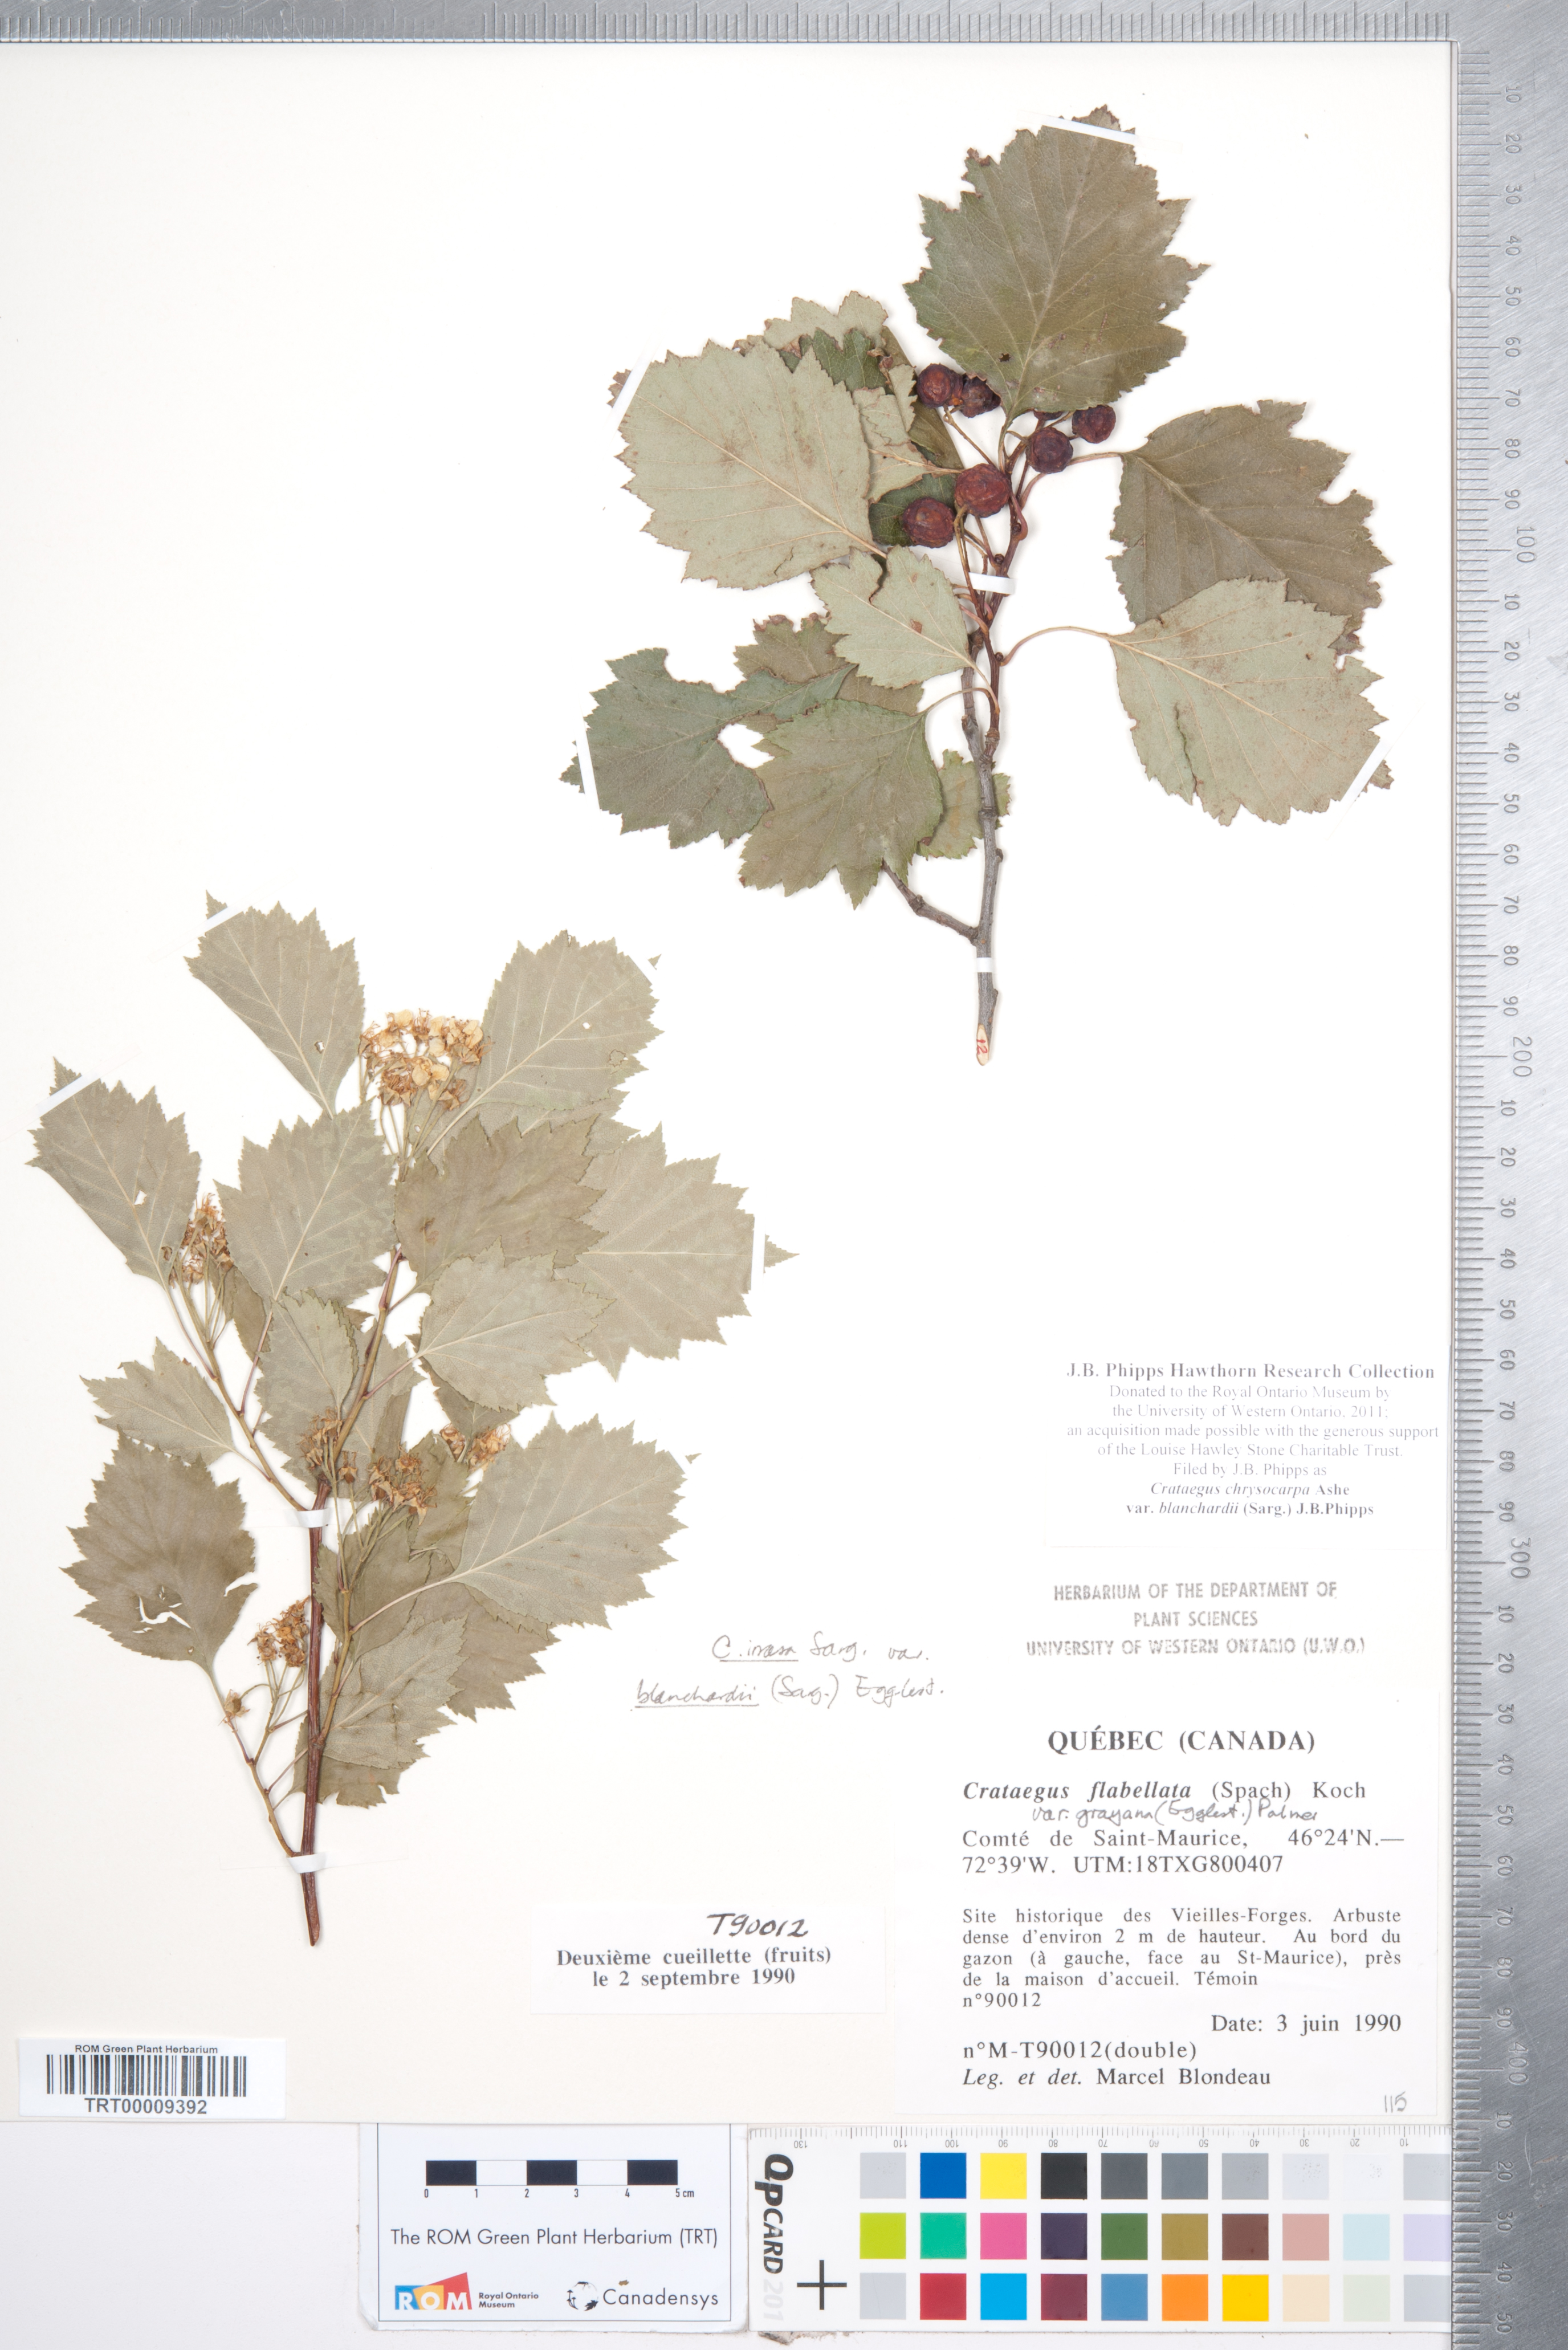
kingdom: Plantae
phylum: Tracheophyta
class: Magnoliopsida
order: Rosales
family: Rosaceae
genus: Crataegus
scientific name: Crataegus chrysocarpa
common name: Fire-berry hawthorn
